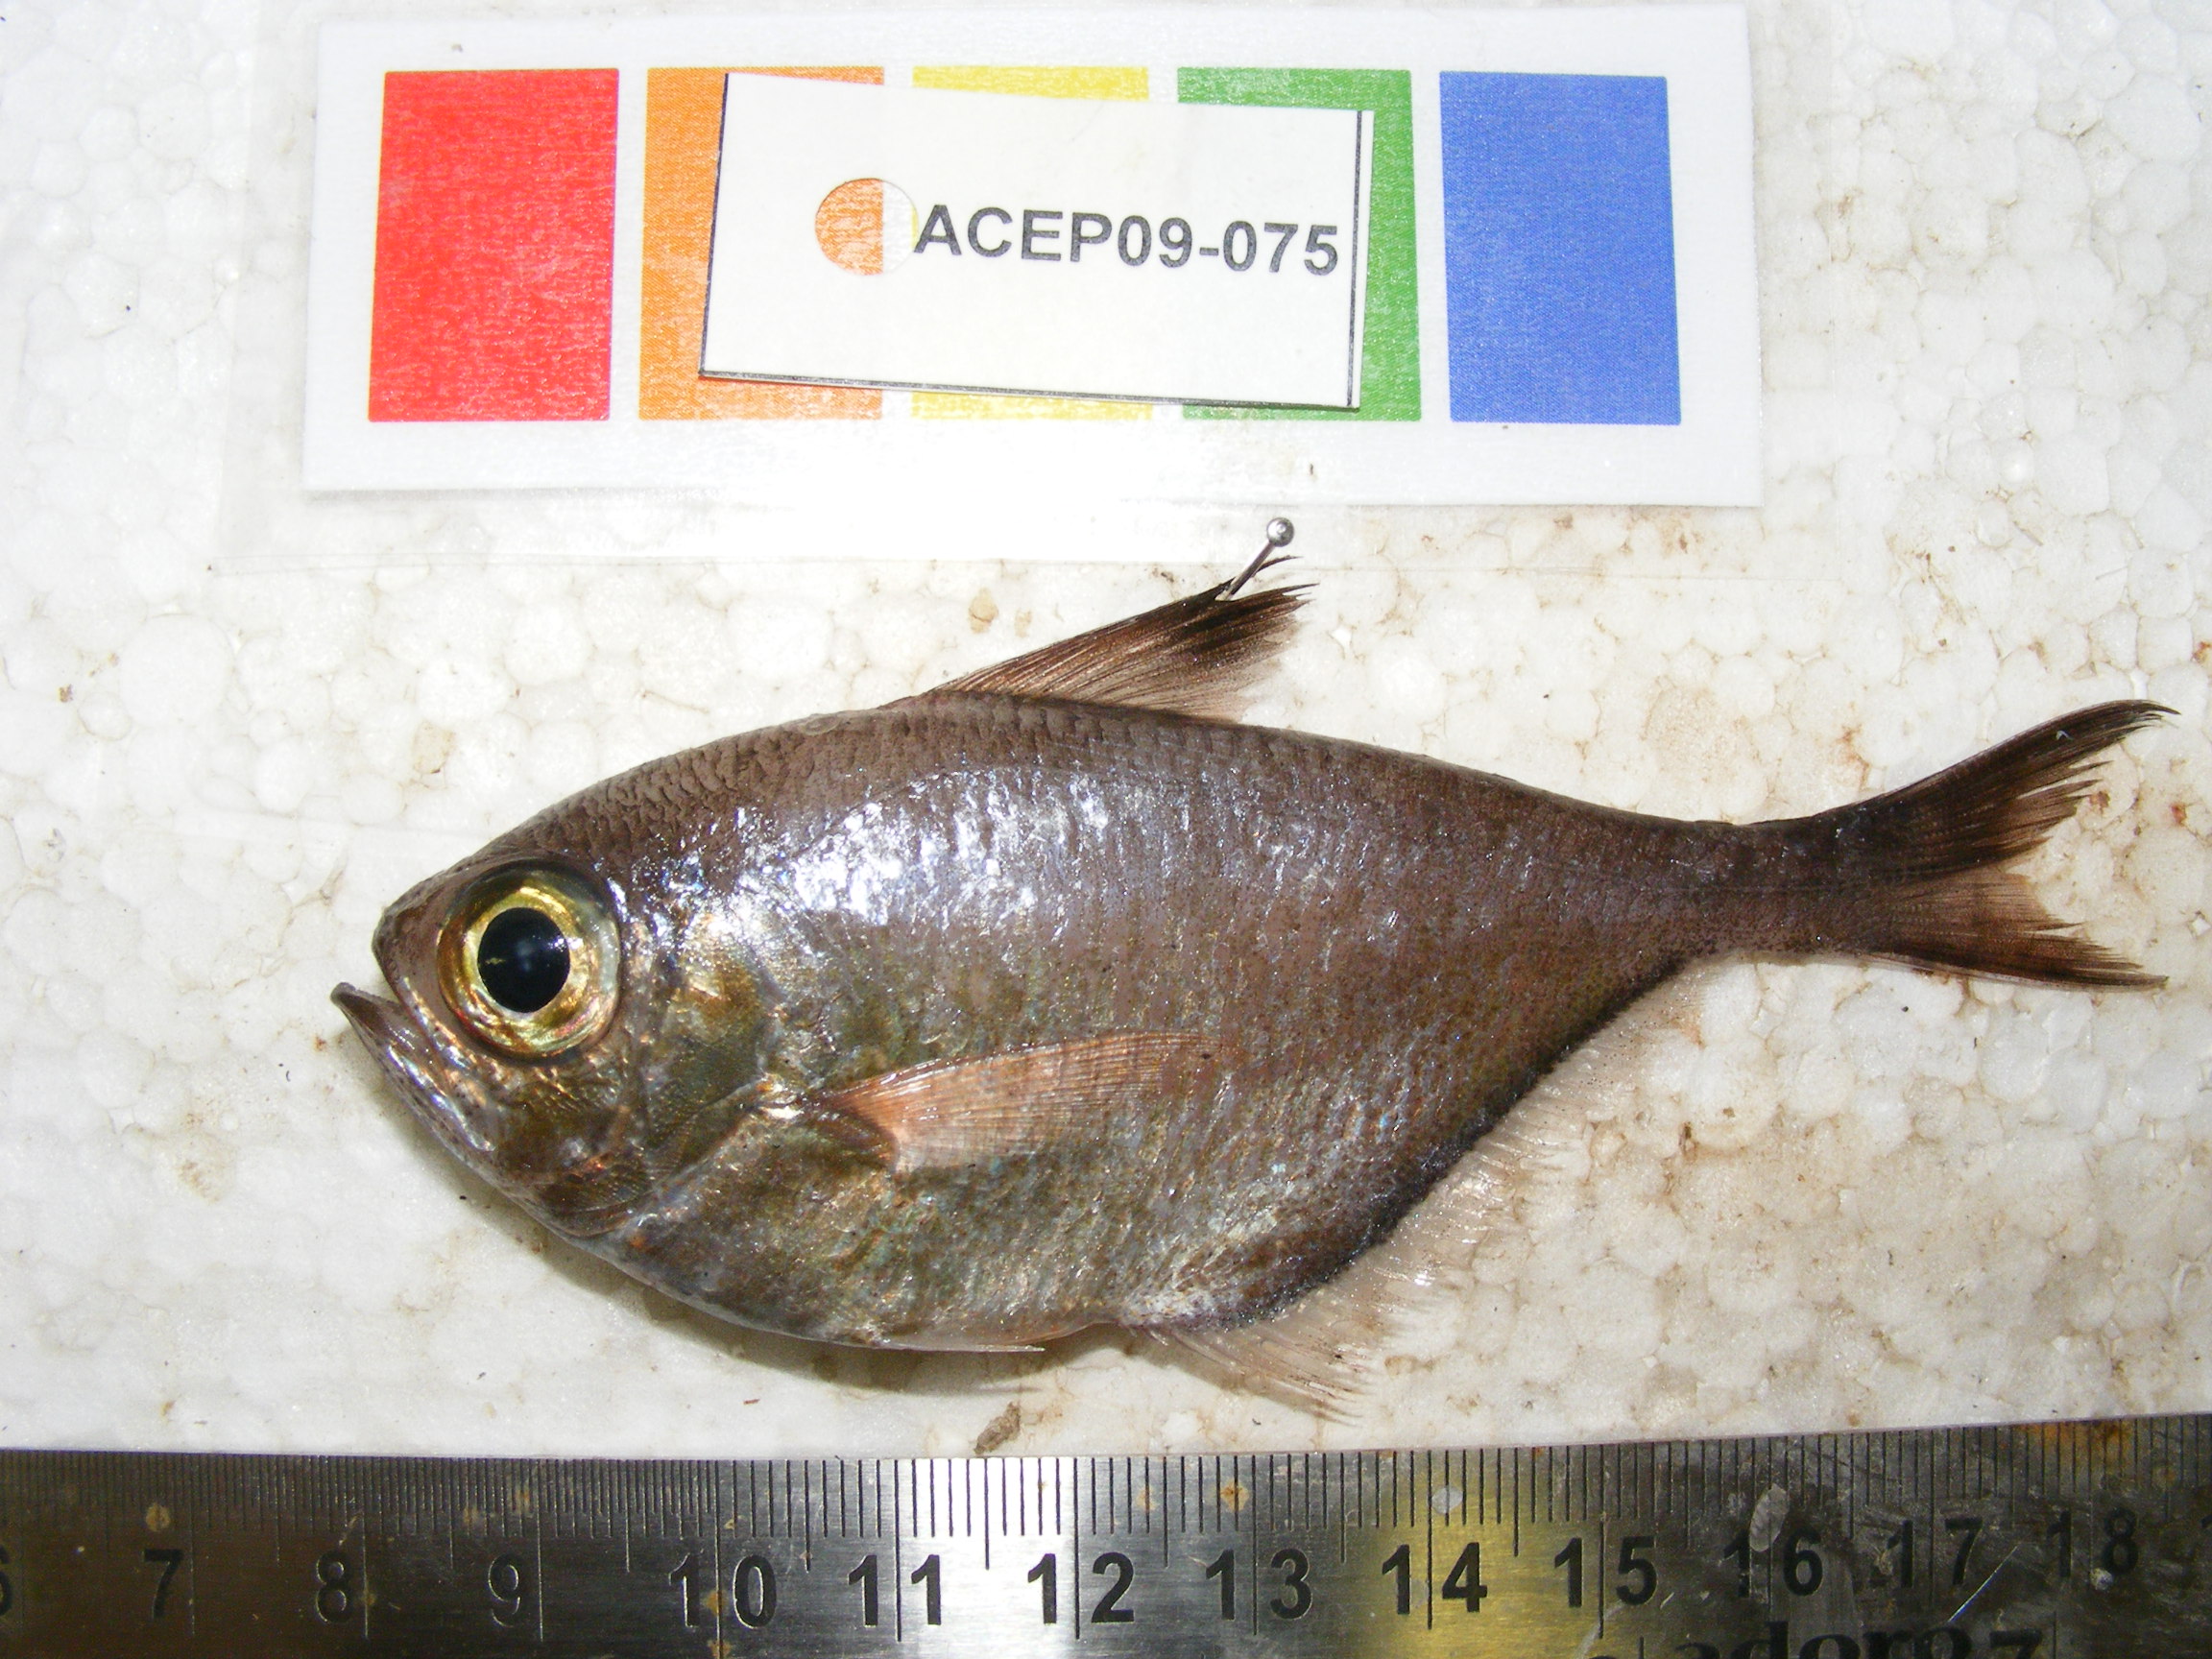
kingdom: Animalia
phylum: Chordata
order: Perciformes
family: Pempheridae
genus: Pempheris
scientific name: Pempheris
